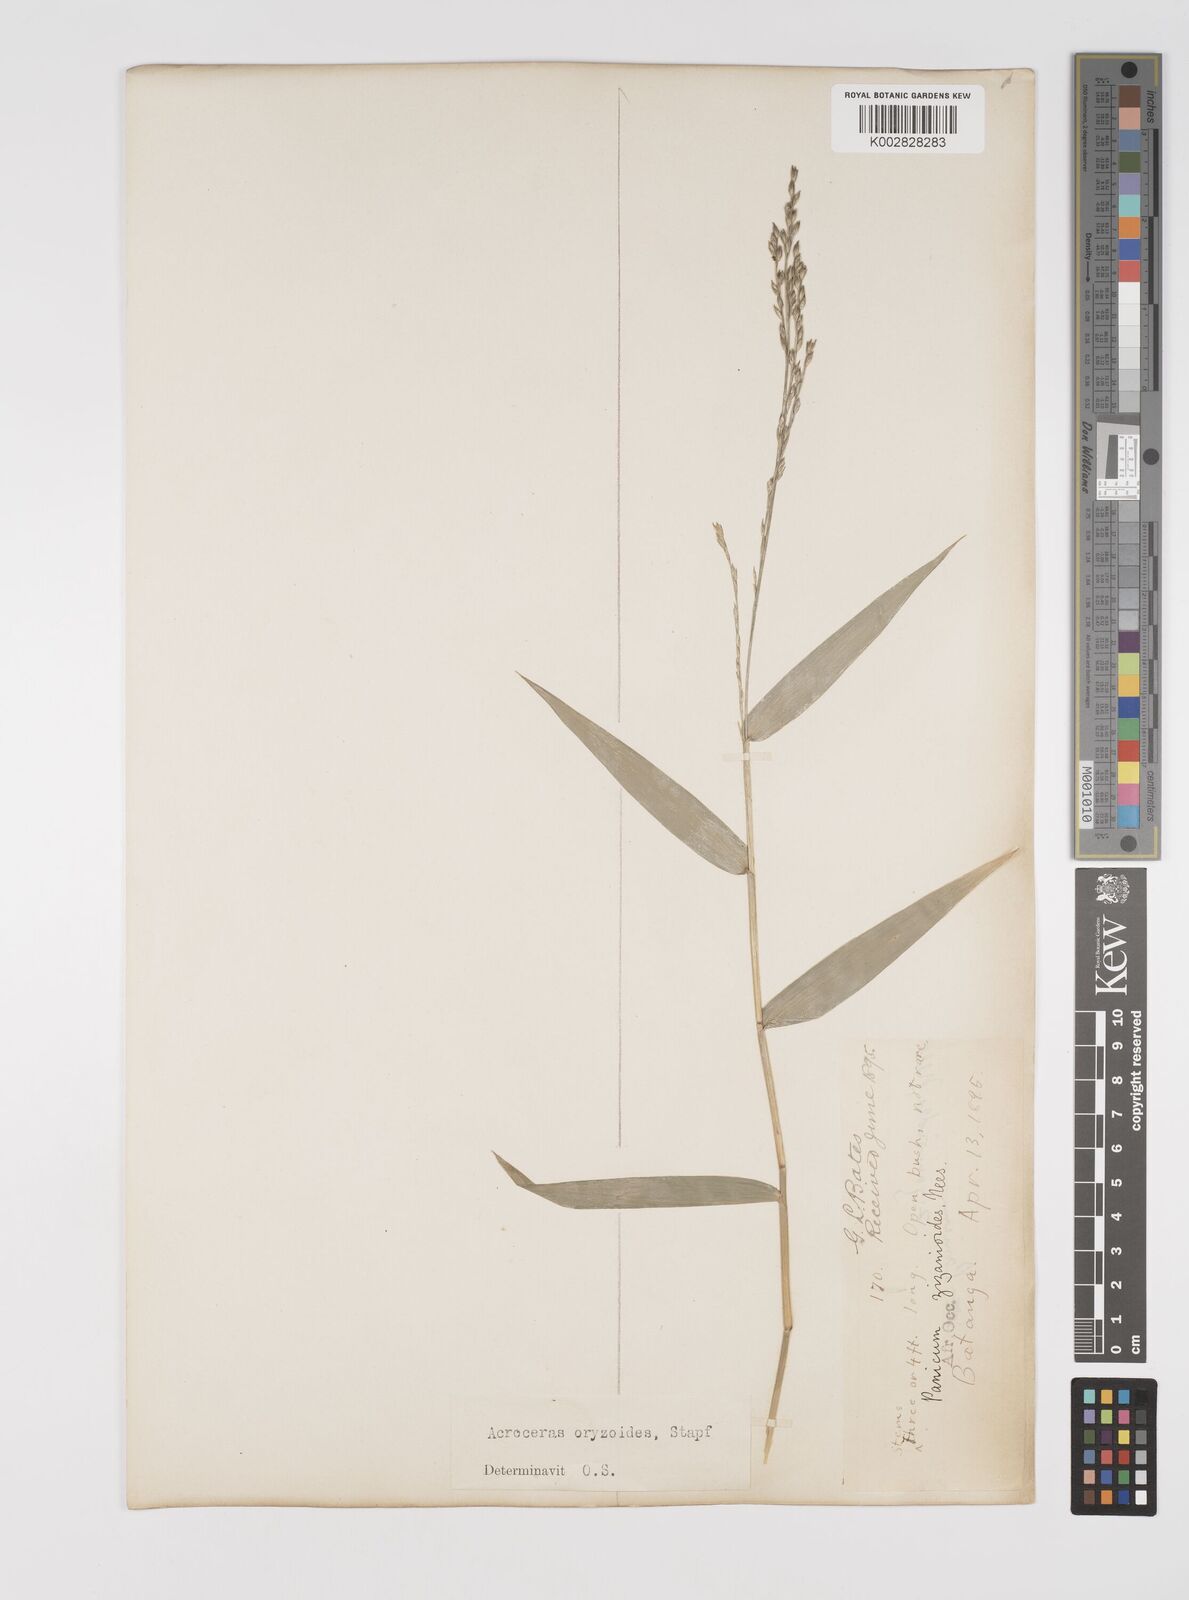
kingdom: Plantae
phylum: Tracheophyta
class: Liliopsida
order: Poales
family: Poaceae
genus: Acroceras
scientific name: Acroceras zizanioides
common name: Oat grass
